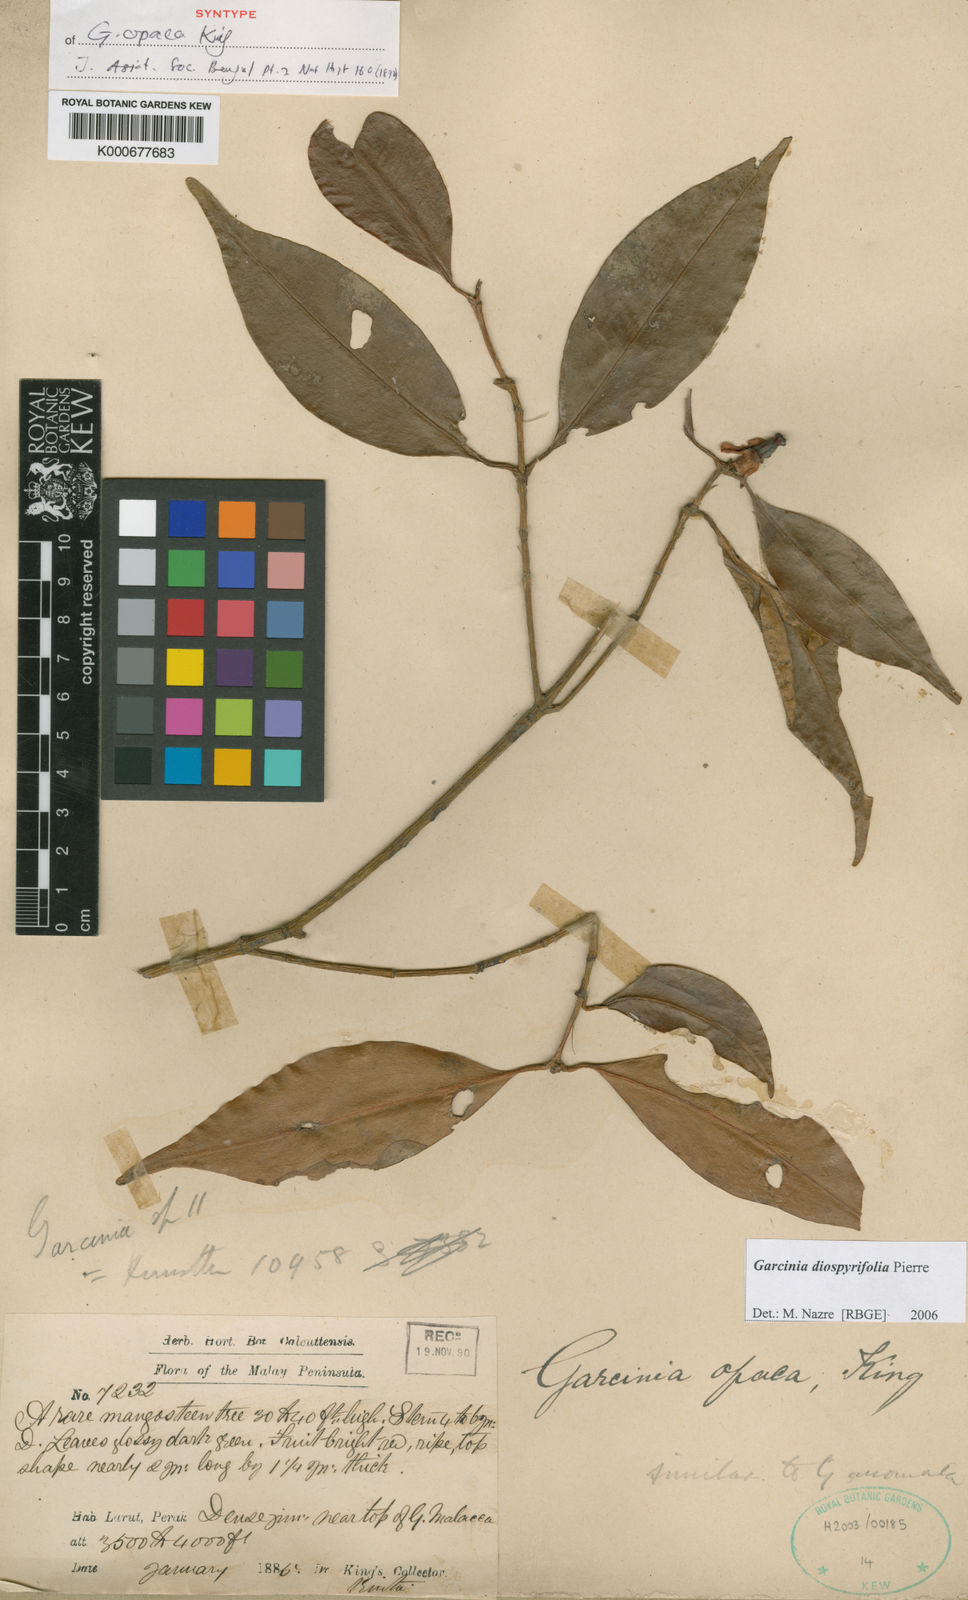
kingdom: Plantae
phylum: Tracheophyta
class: Magnoliopsida
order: Malpighiales
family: Clusiaceae
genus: Garcinia
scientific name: Garcinia diospyrifolia
